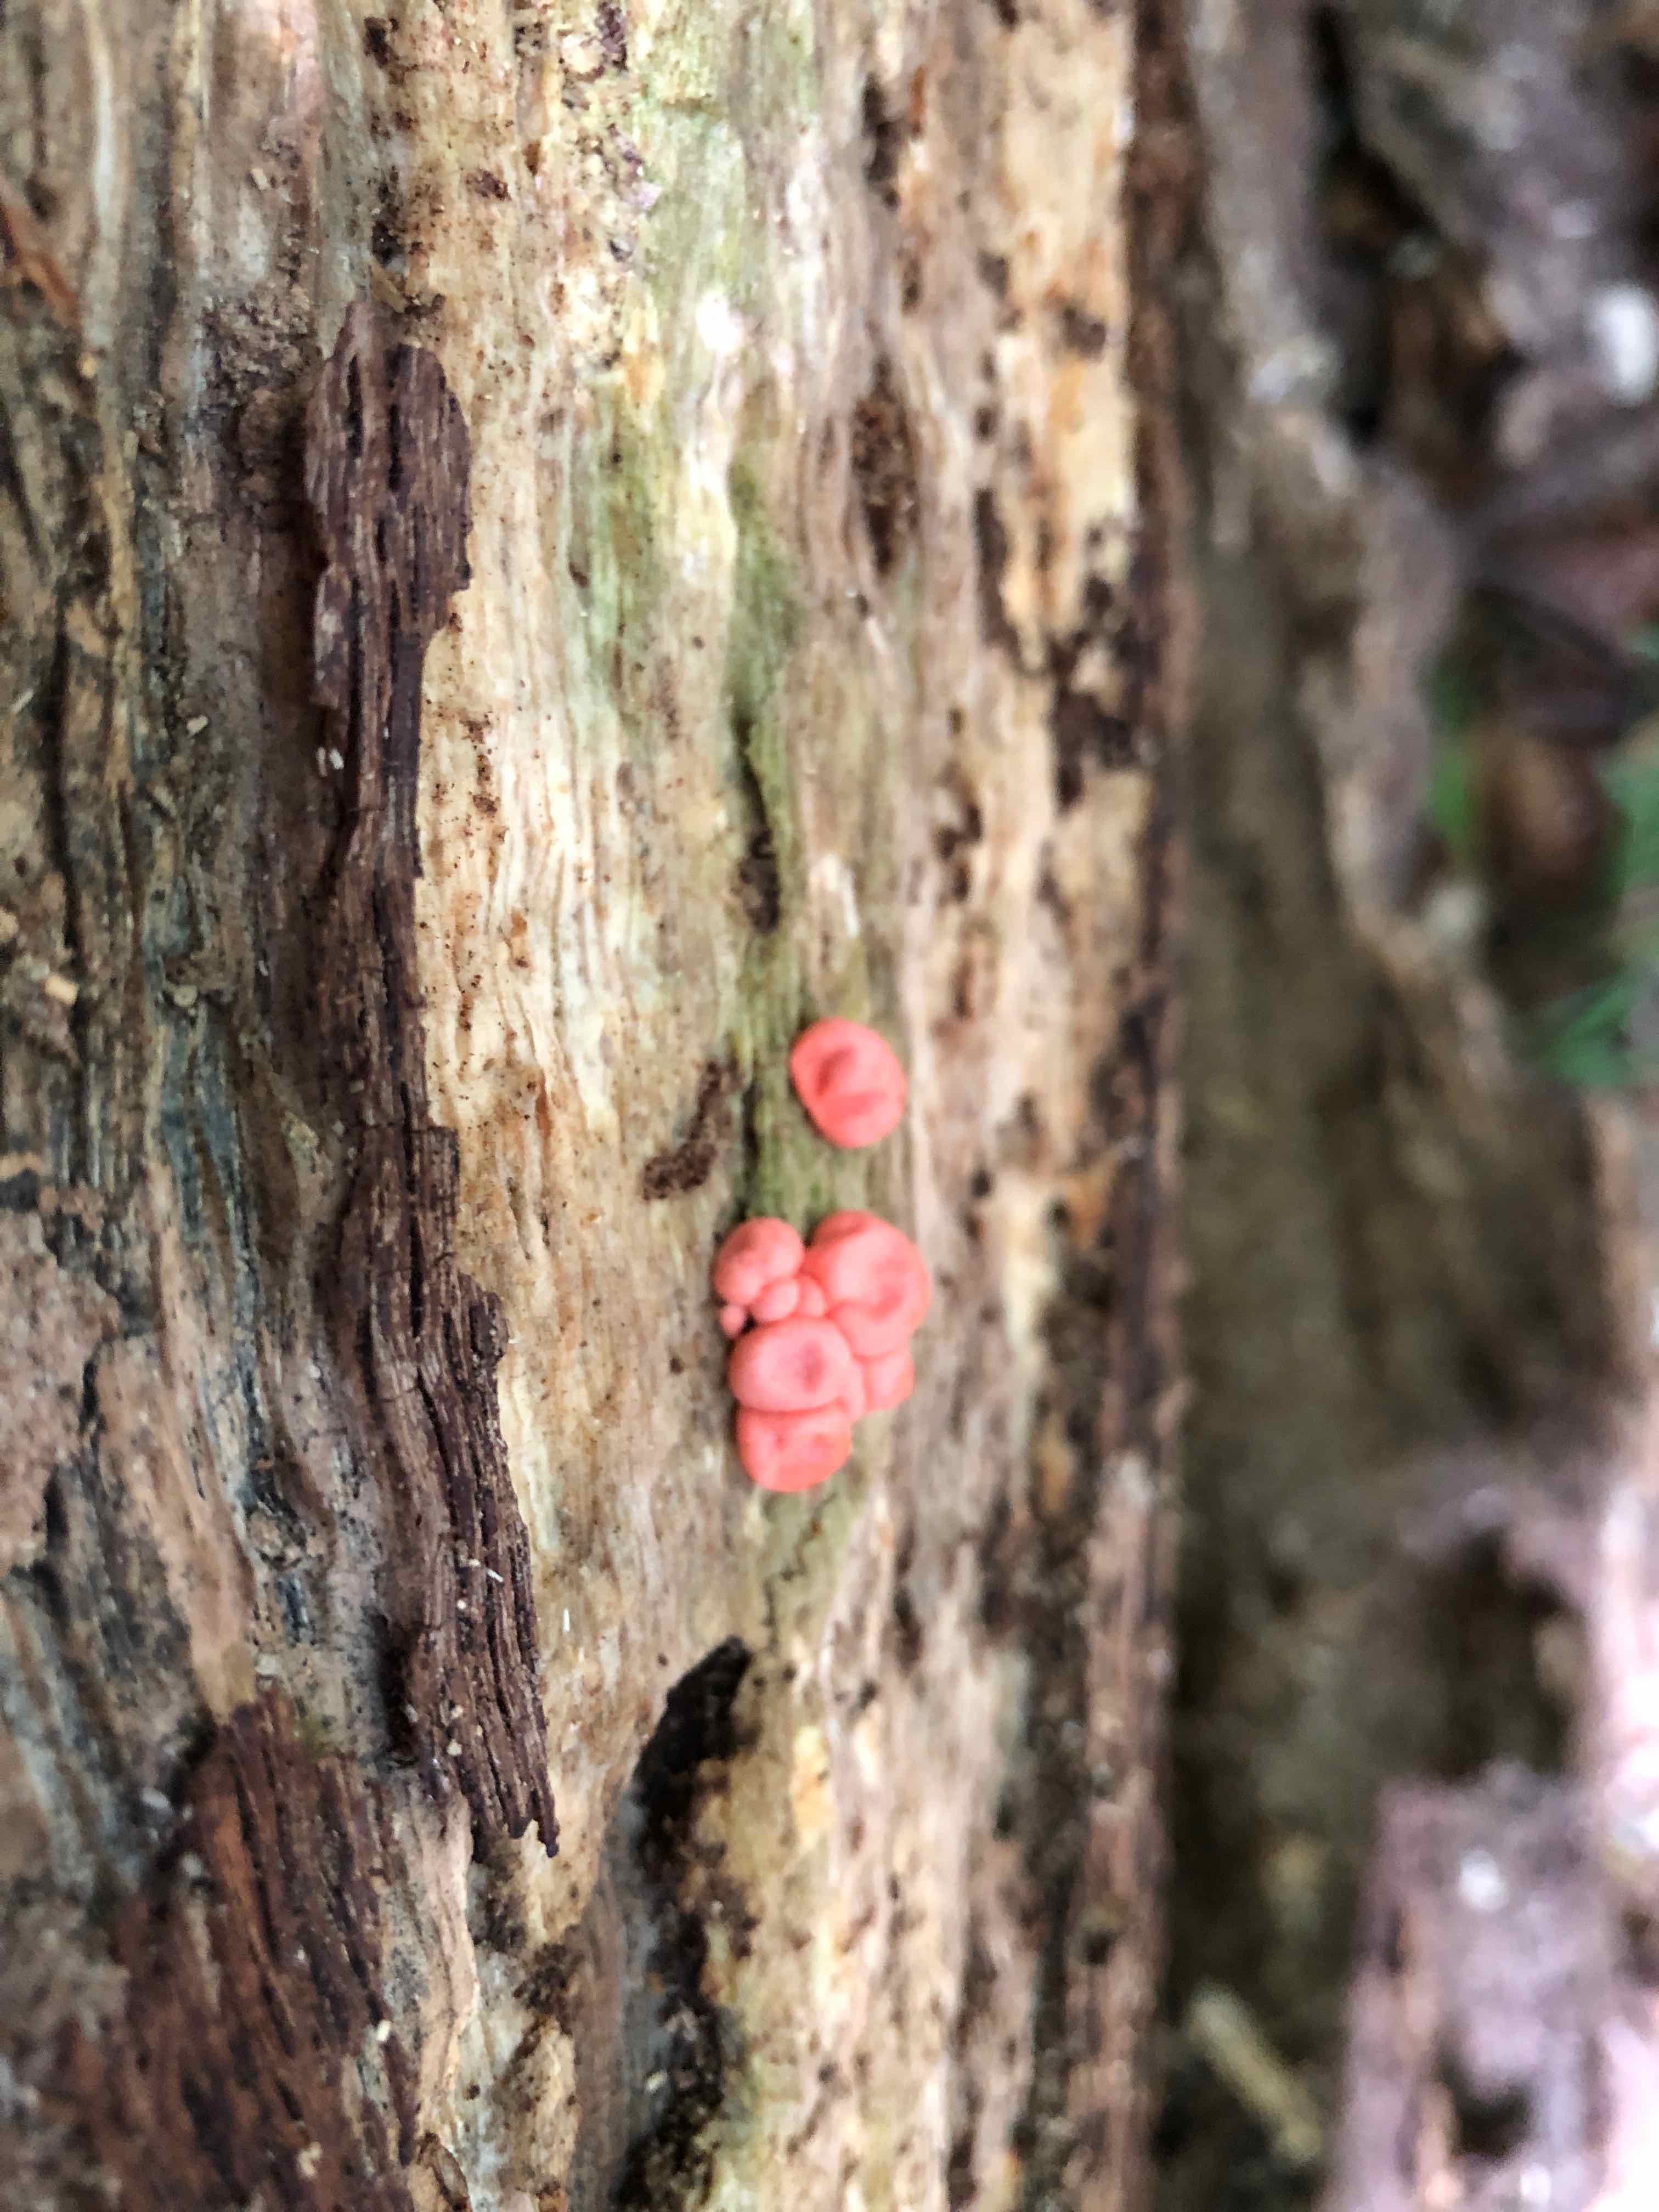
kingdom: Protozoa
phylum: Mycetozoa
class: Myxomycetes
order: Cribrariales
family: Tubiferaceae
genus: Lycogala
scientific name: Lycogala epidendrum
